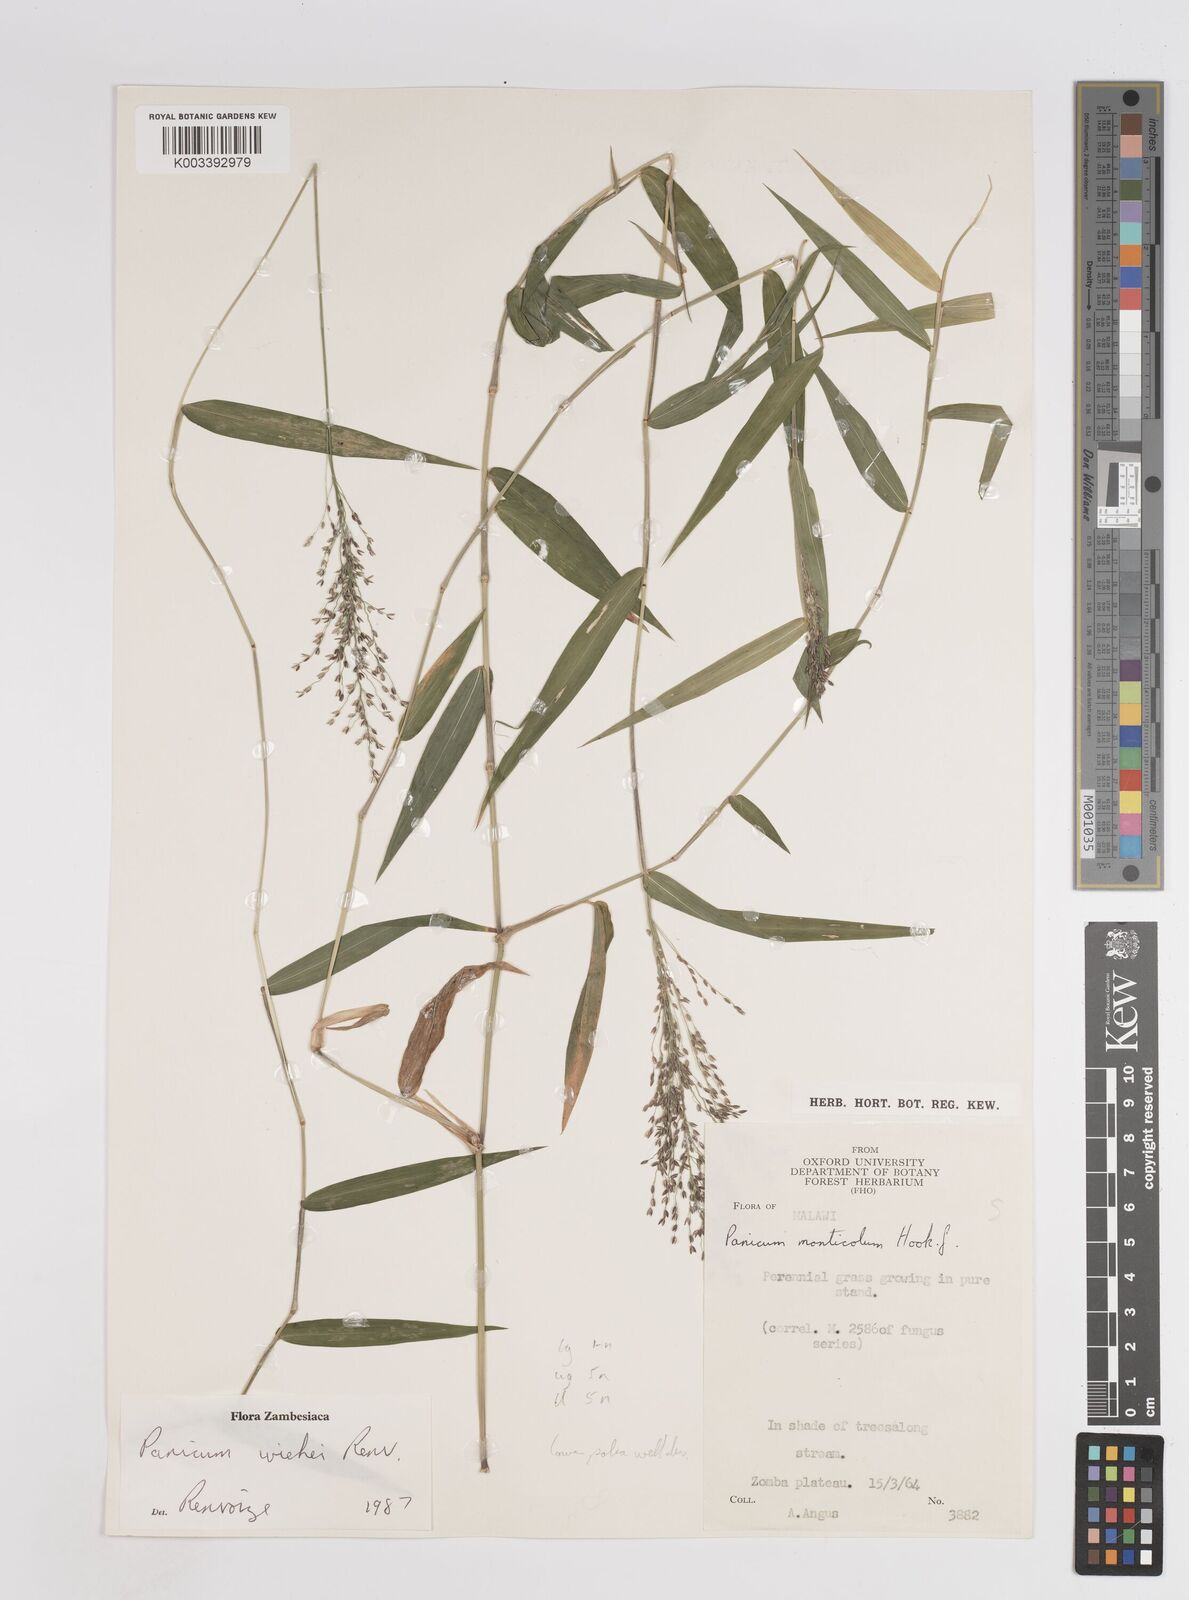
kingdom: Plantae
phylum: Tracheophyta
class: Liliopsida
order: Poales
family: Poaceae
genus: Panicum
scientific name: Panicum wiehei
